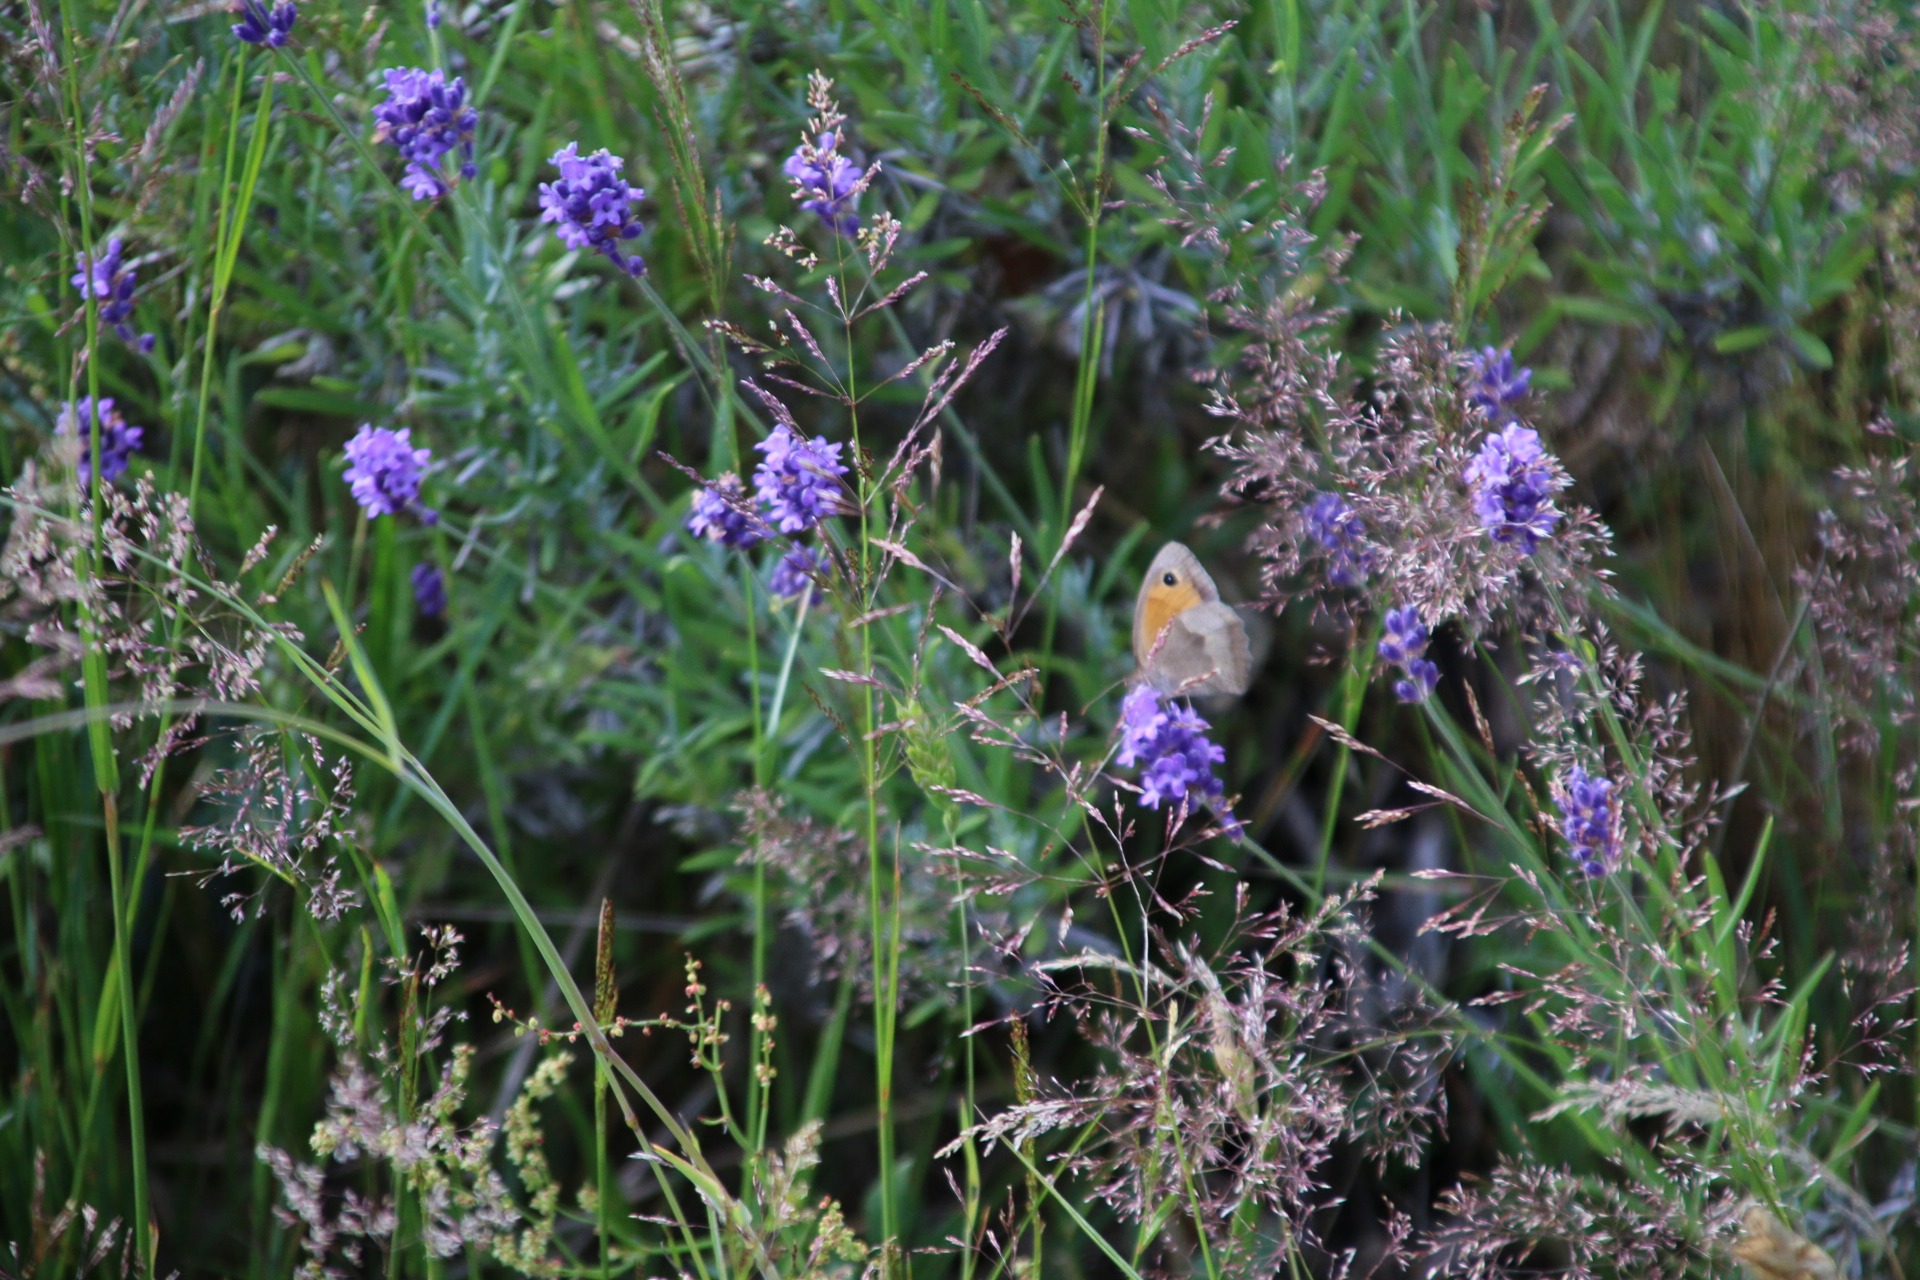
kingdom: Animalia
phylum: Arthropoda
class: Insecta
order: Lepidoptera
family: Nymphalidae
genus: Maniola
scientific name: Maniola jurtina
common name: Græsrandøje
